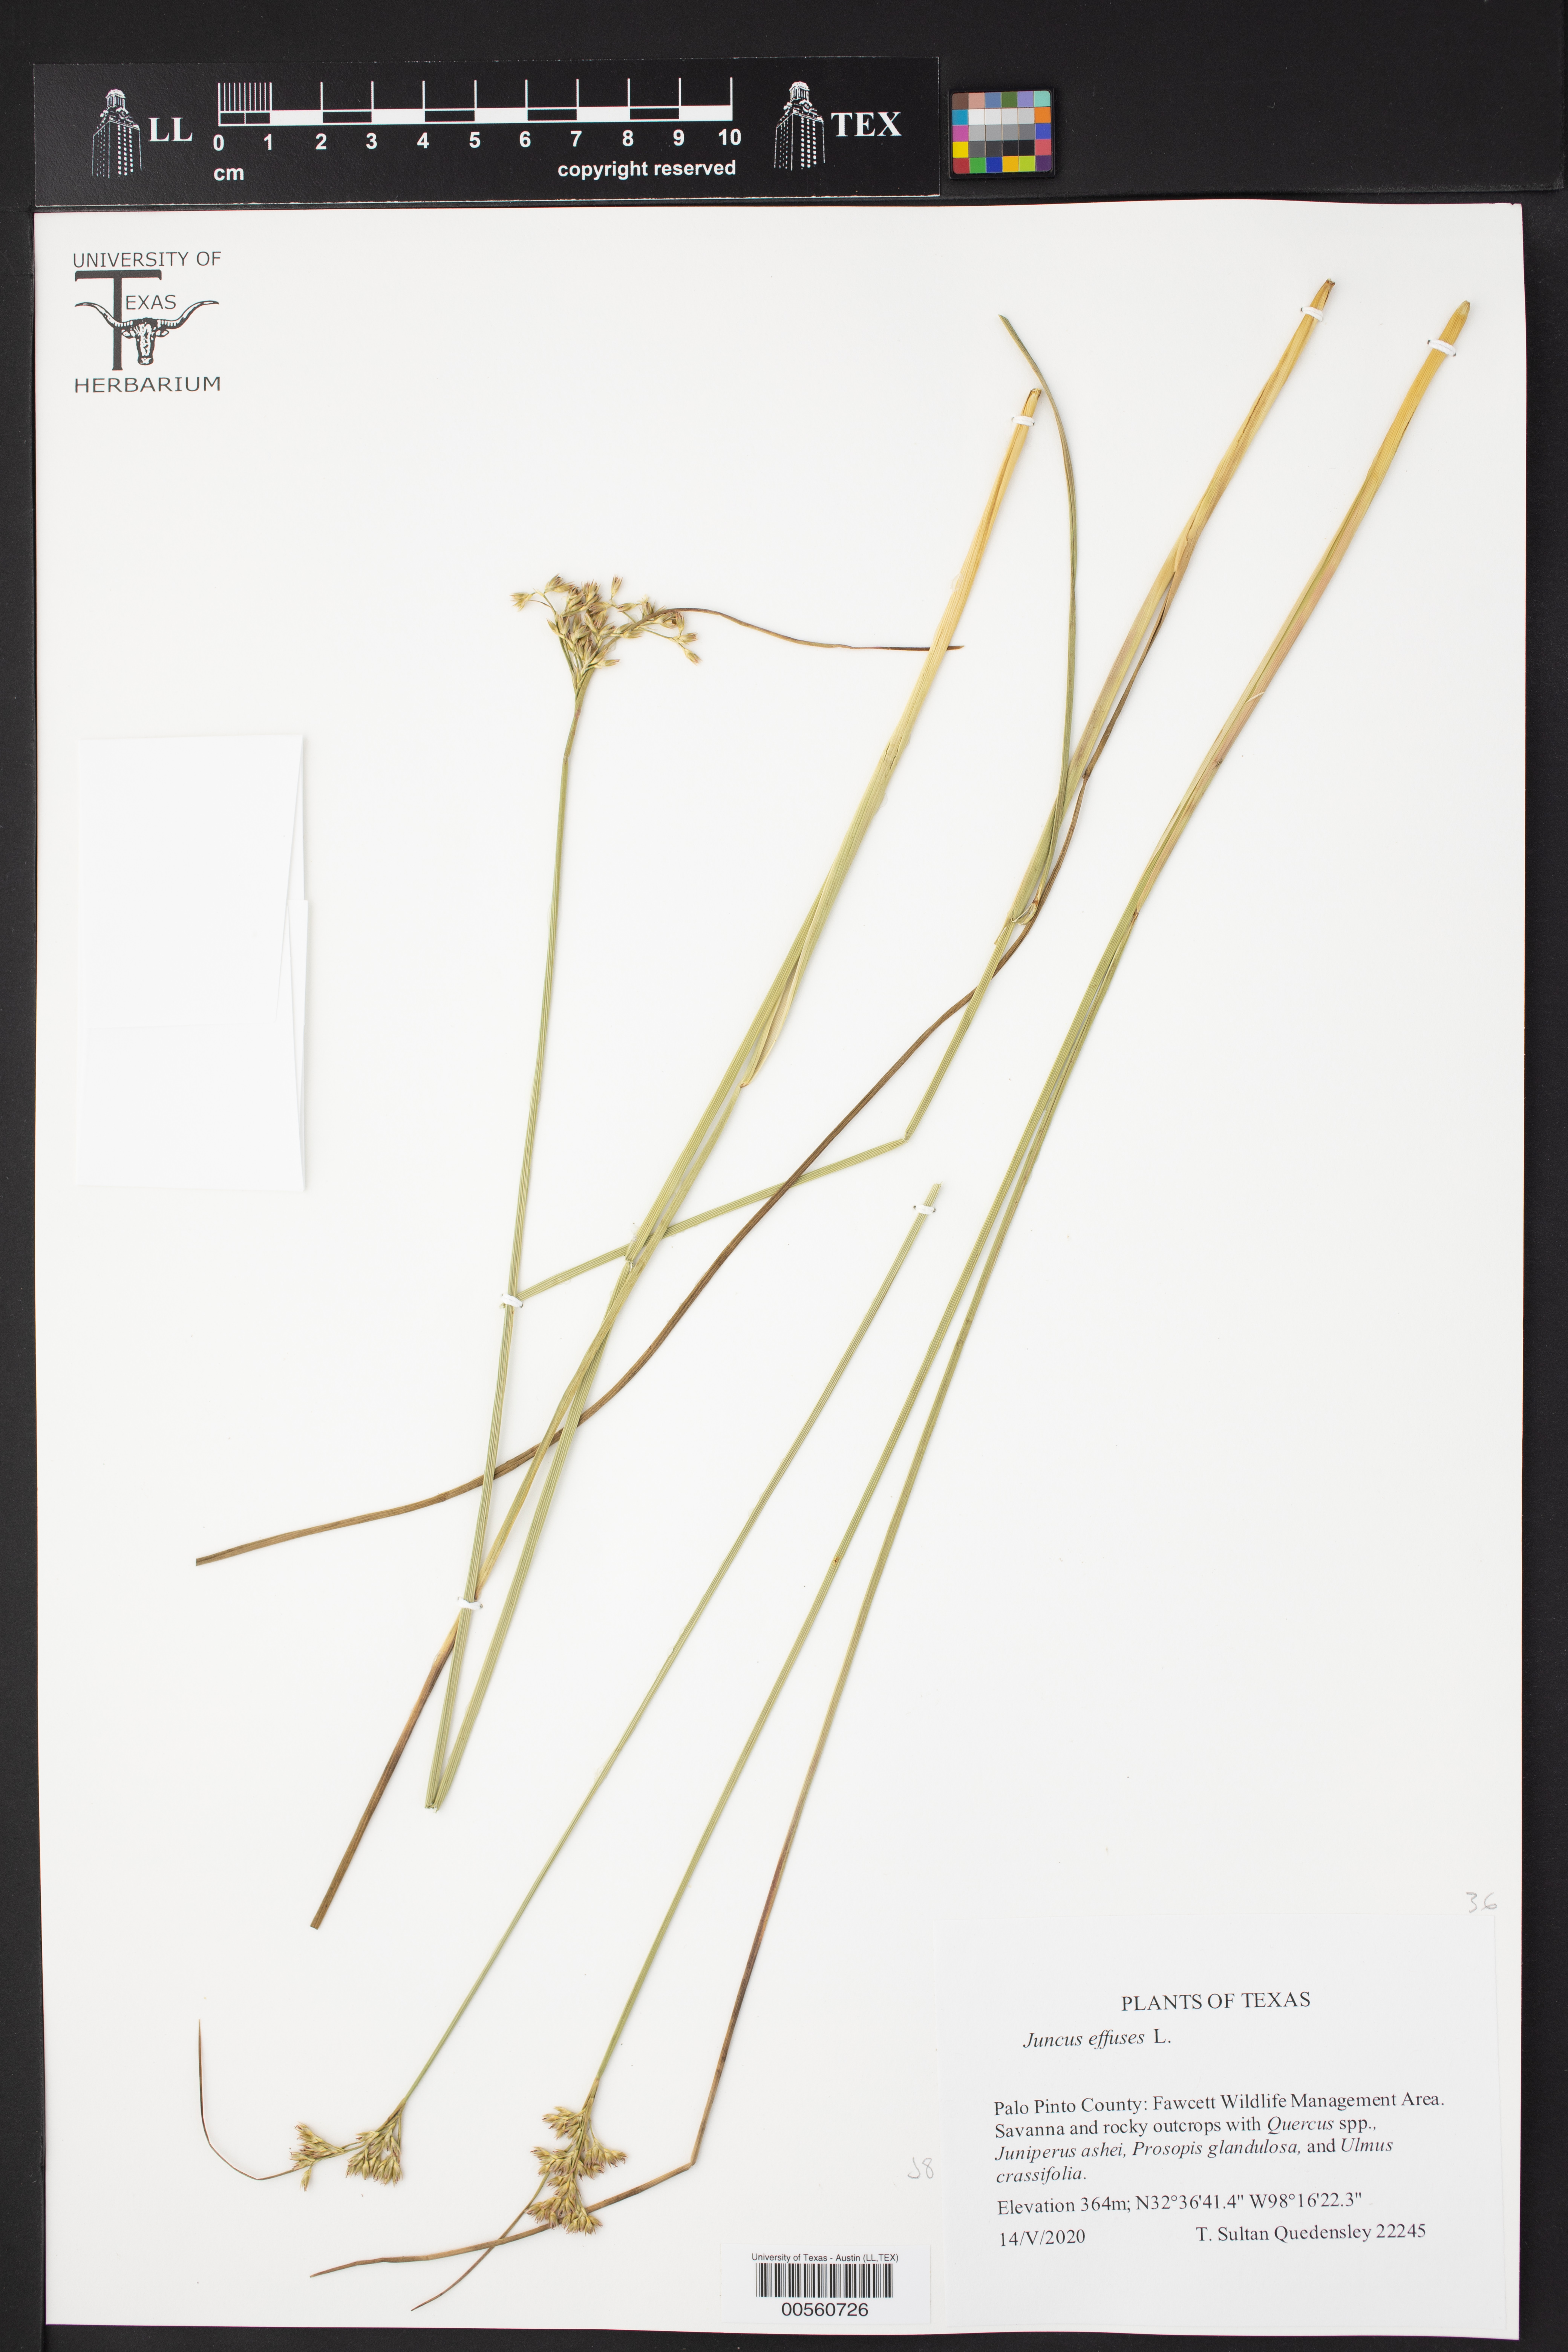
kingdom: Plantae
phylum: Tracheophyta
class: Liliopsida
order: Poales
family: Juncaceae
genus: Juncus
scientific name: Juncus effusus
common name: Soft rush
